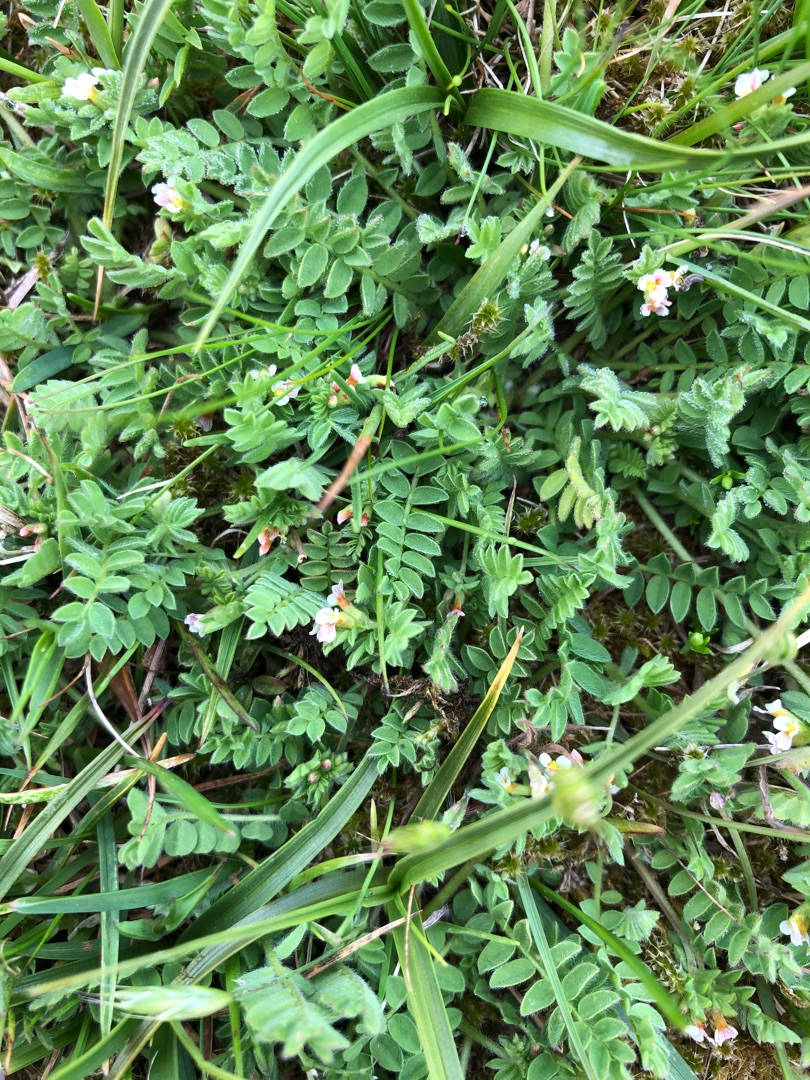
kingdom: Plantae
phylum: Tracheophyta
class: Magnoliopsida
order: Fabales
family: Fabaceae
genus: Ornithopus
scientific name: Ornithopus perpusillus
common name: Liden fugleklo
